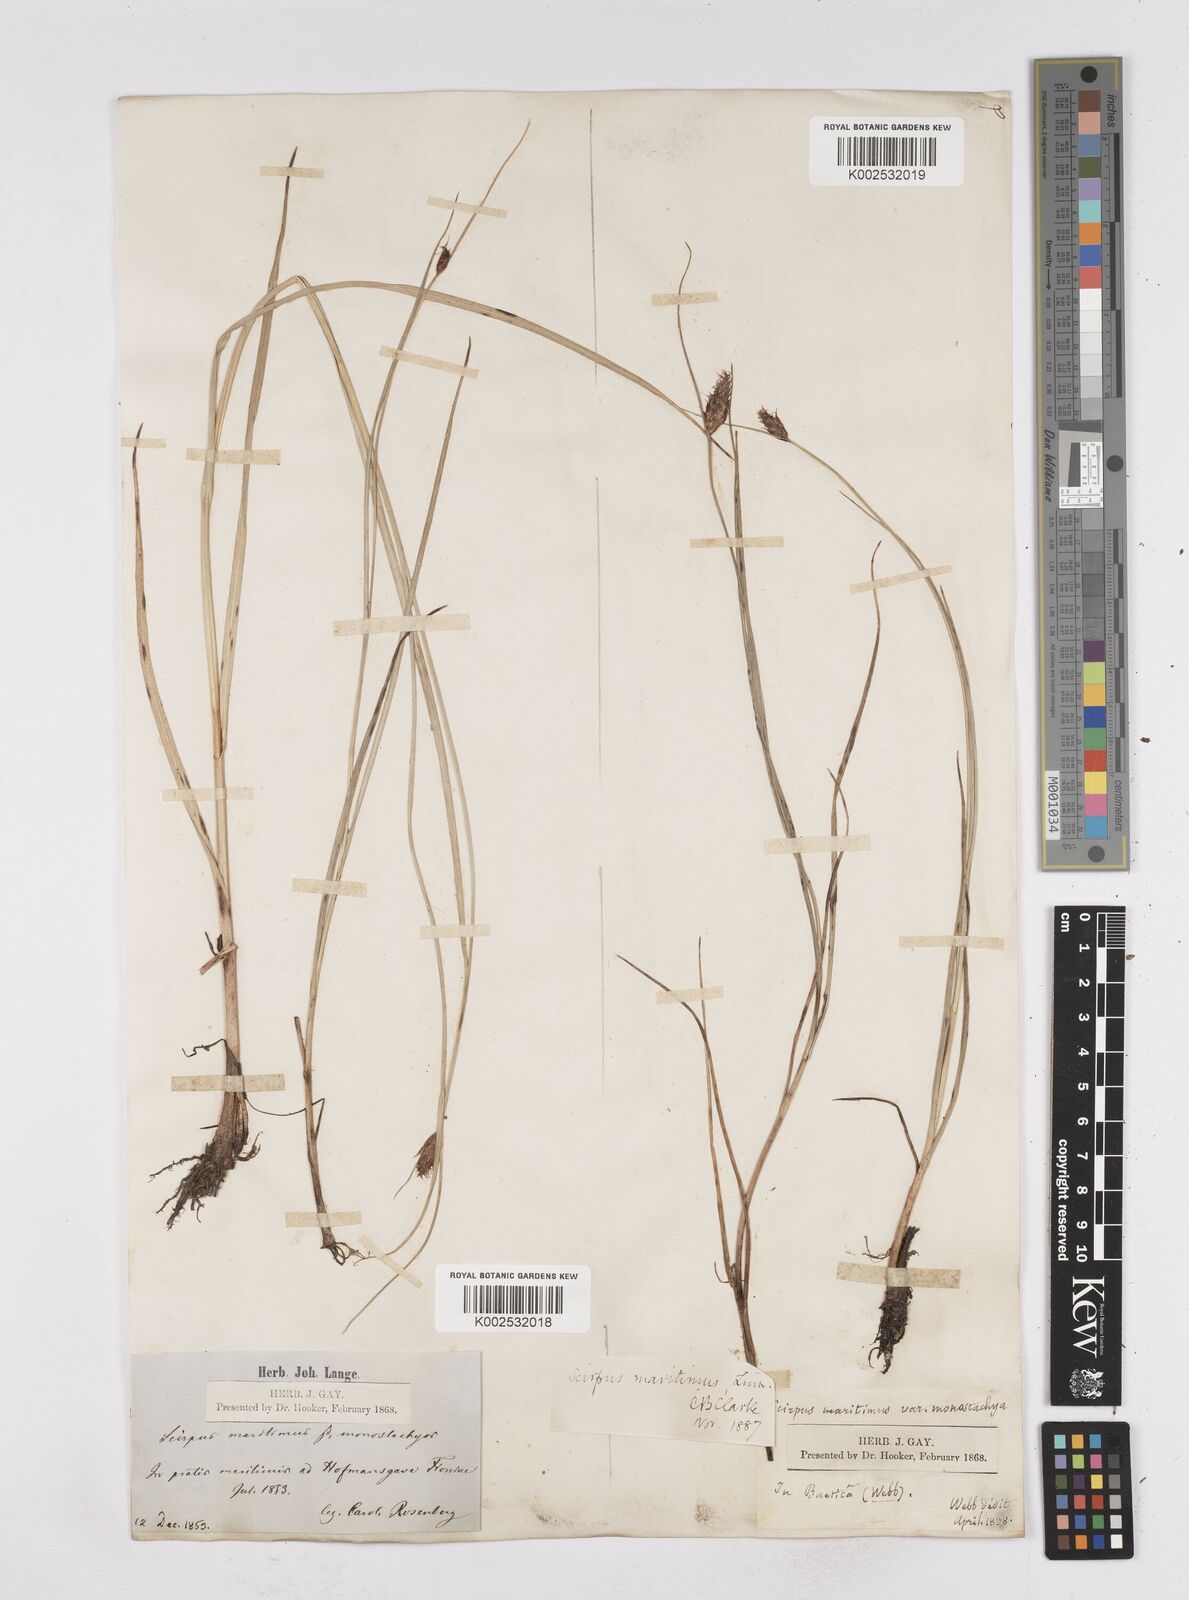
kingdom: Plantae
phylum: Tracheophyta
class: Liliopsida
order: Poales
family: Cyperaceae
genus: Bolboschoenus
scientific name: Bolboschoenus maritimus
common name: Sea club-rush
